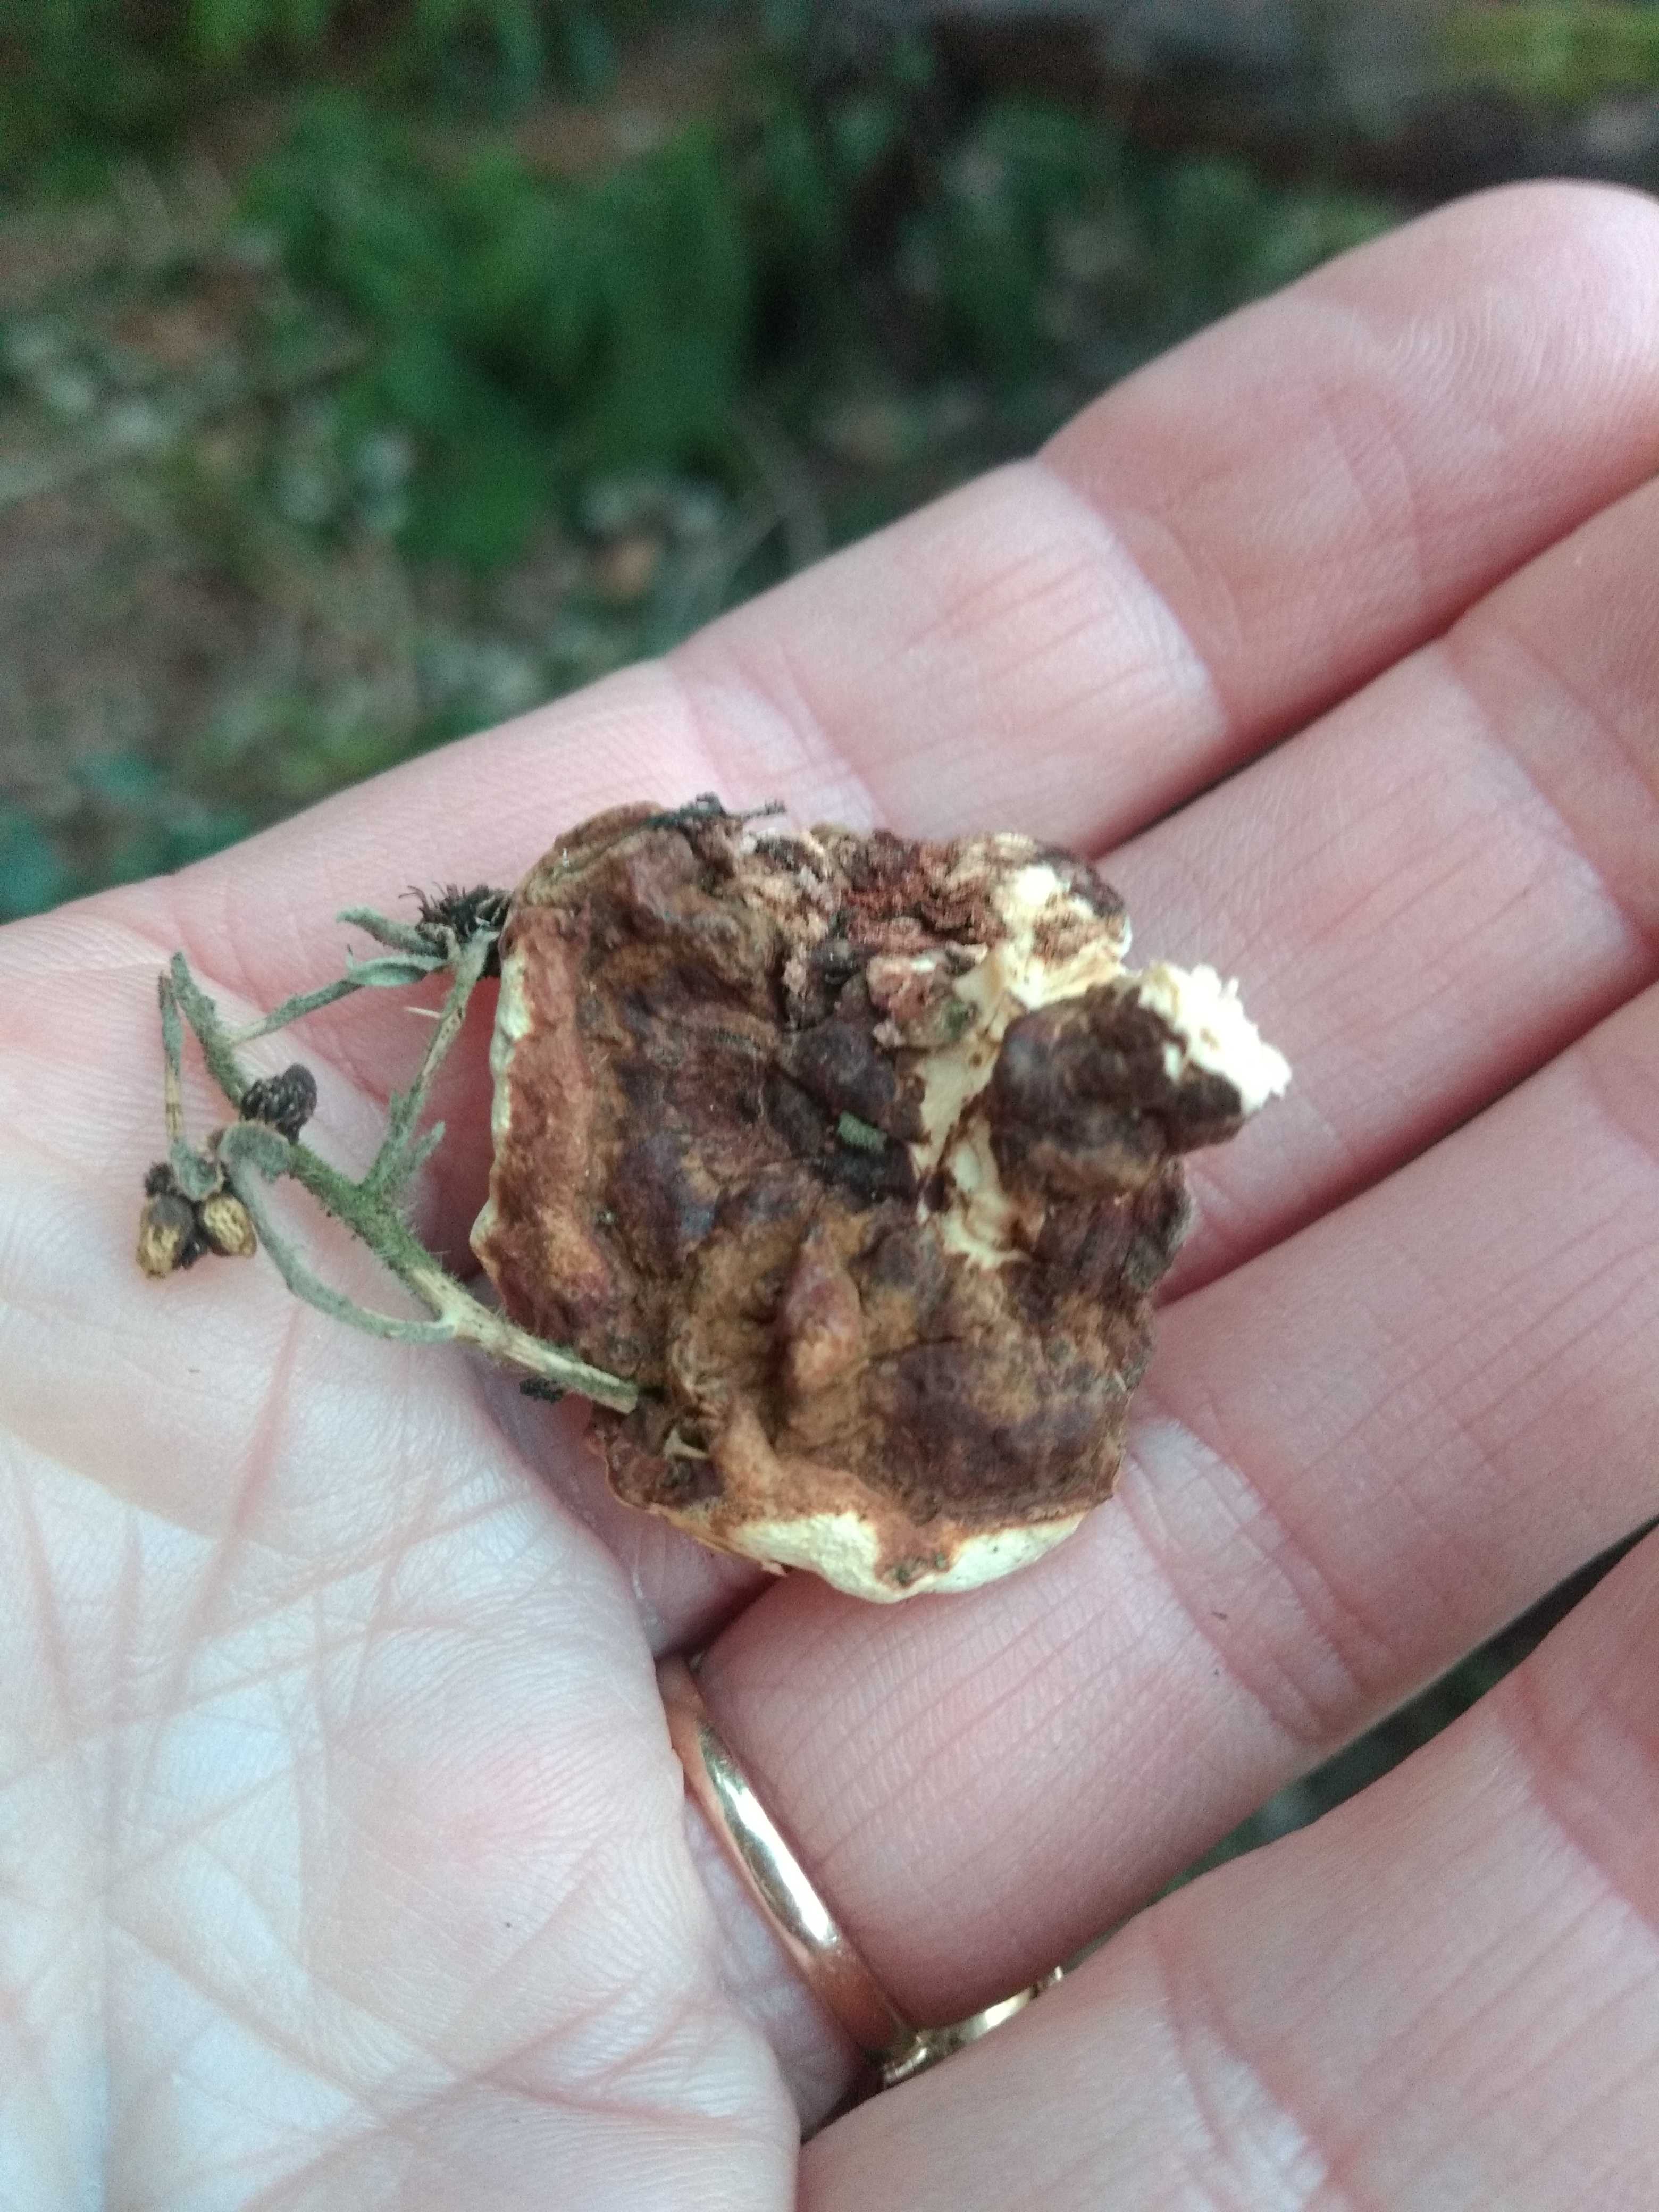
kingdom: Fungi
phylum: Basidiomycota
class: Agaricomycetes
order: Russulales
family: Bondarzewiaceae
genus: Heterobasidion
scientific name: Heterobasidion annosum
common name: almindelig rodfordærver
